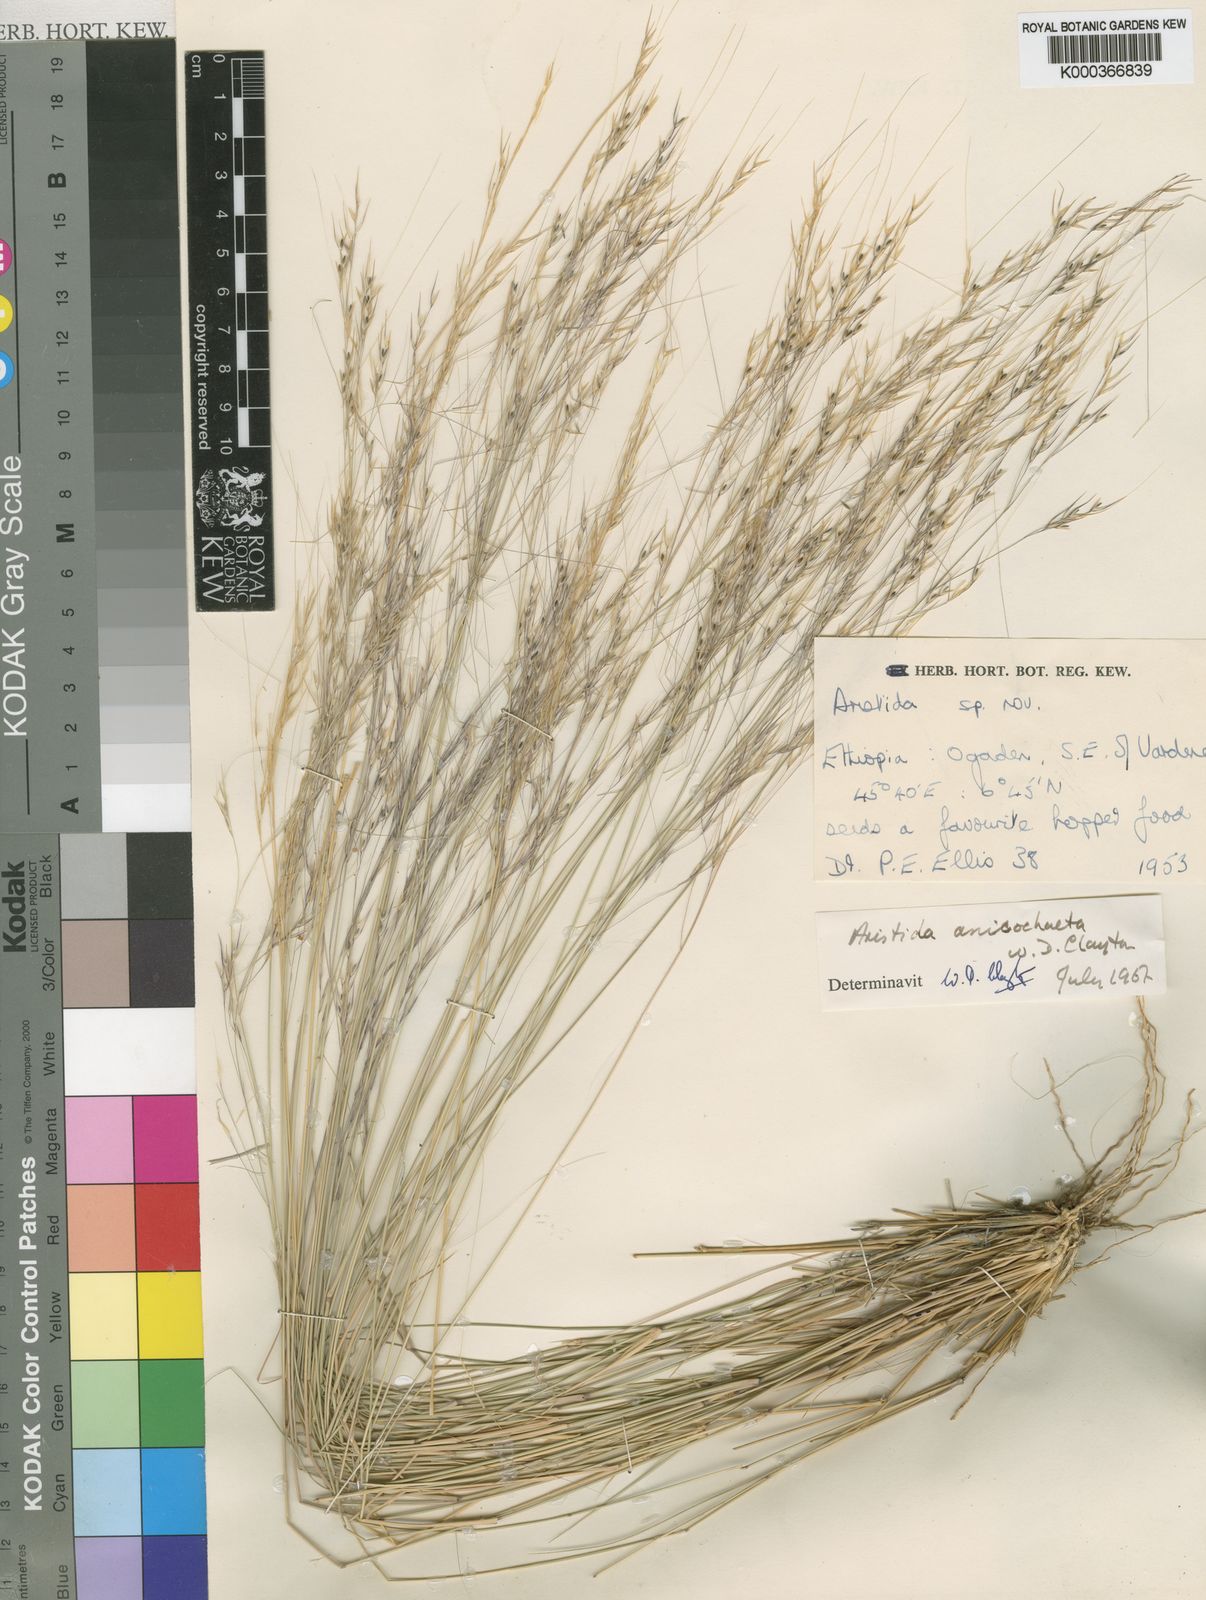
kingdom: Plantae
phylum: Tracheophyta
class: Liliopsida
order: Poales
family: Poaceae
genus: Aristida
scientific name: Aristida anisochaeta
